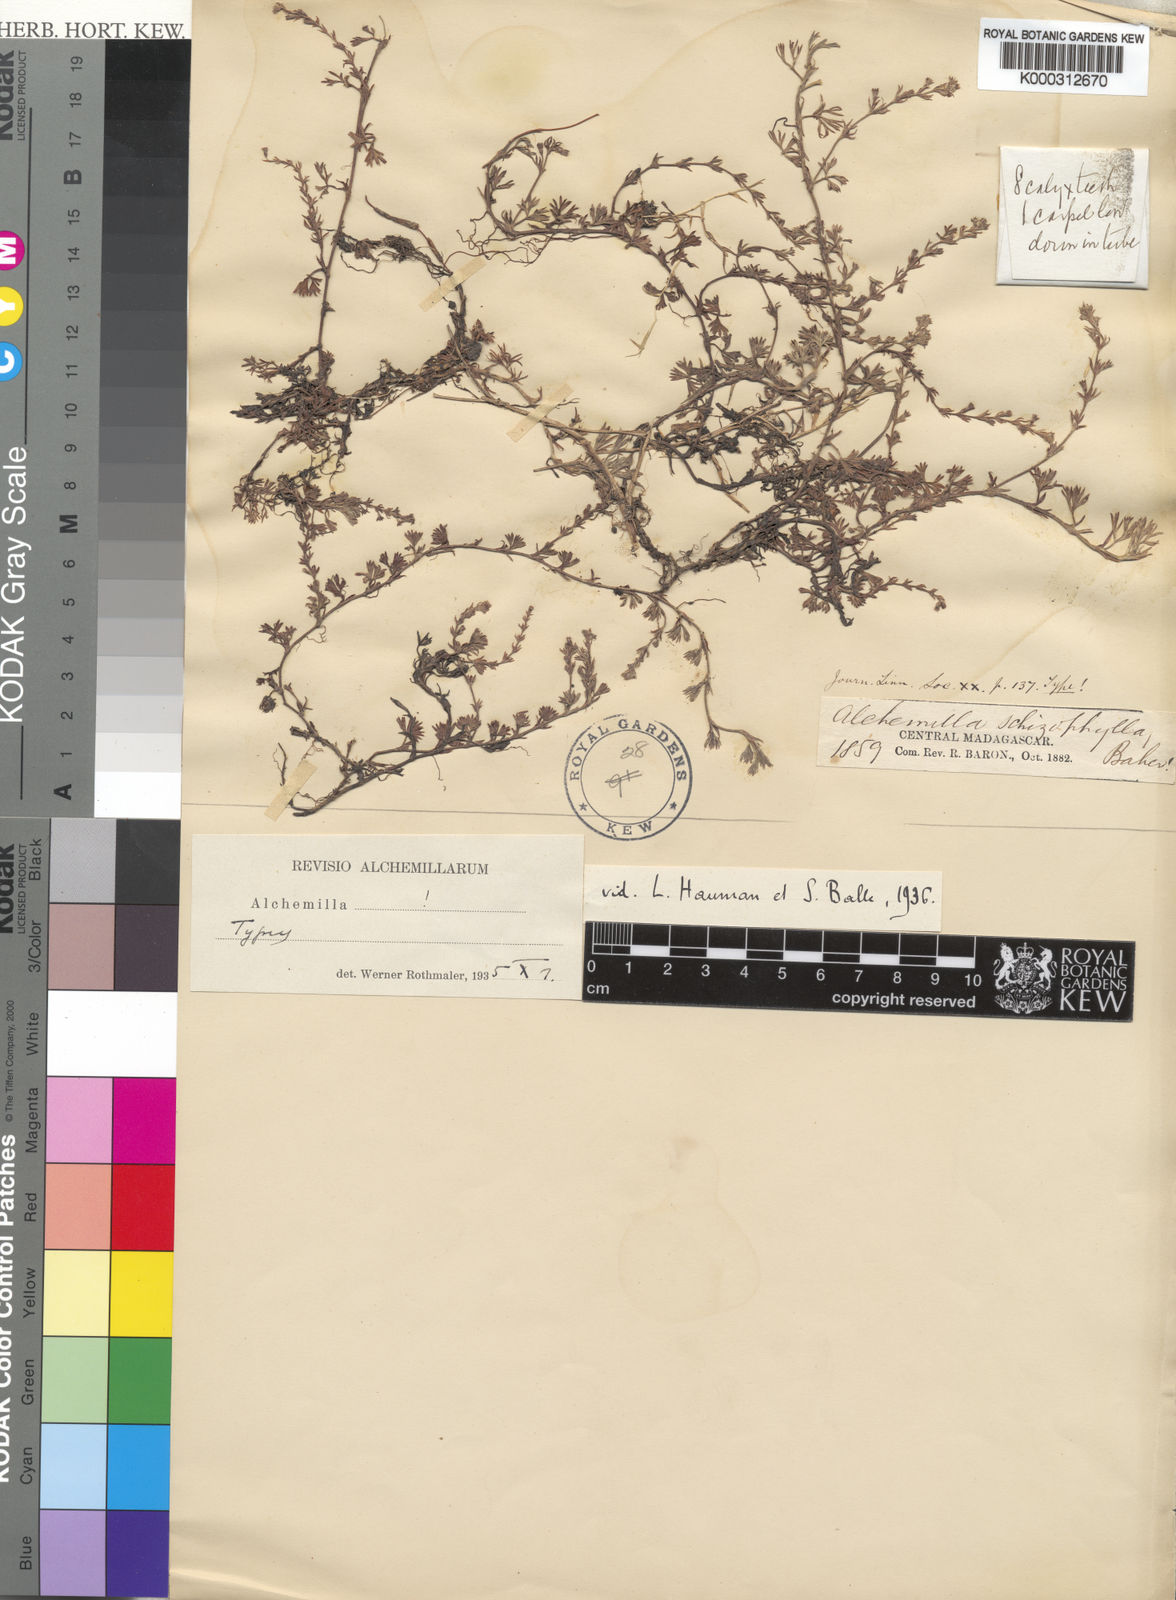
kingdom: Plantae
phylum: Tracheophyta
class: Magnoliopsida
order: Rosales
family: Rosaceae
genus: Alchemilla
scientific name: Alchemilla
